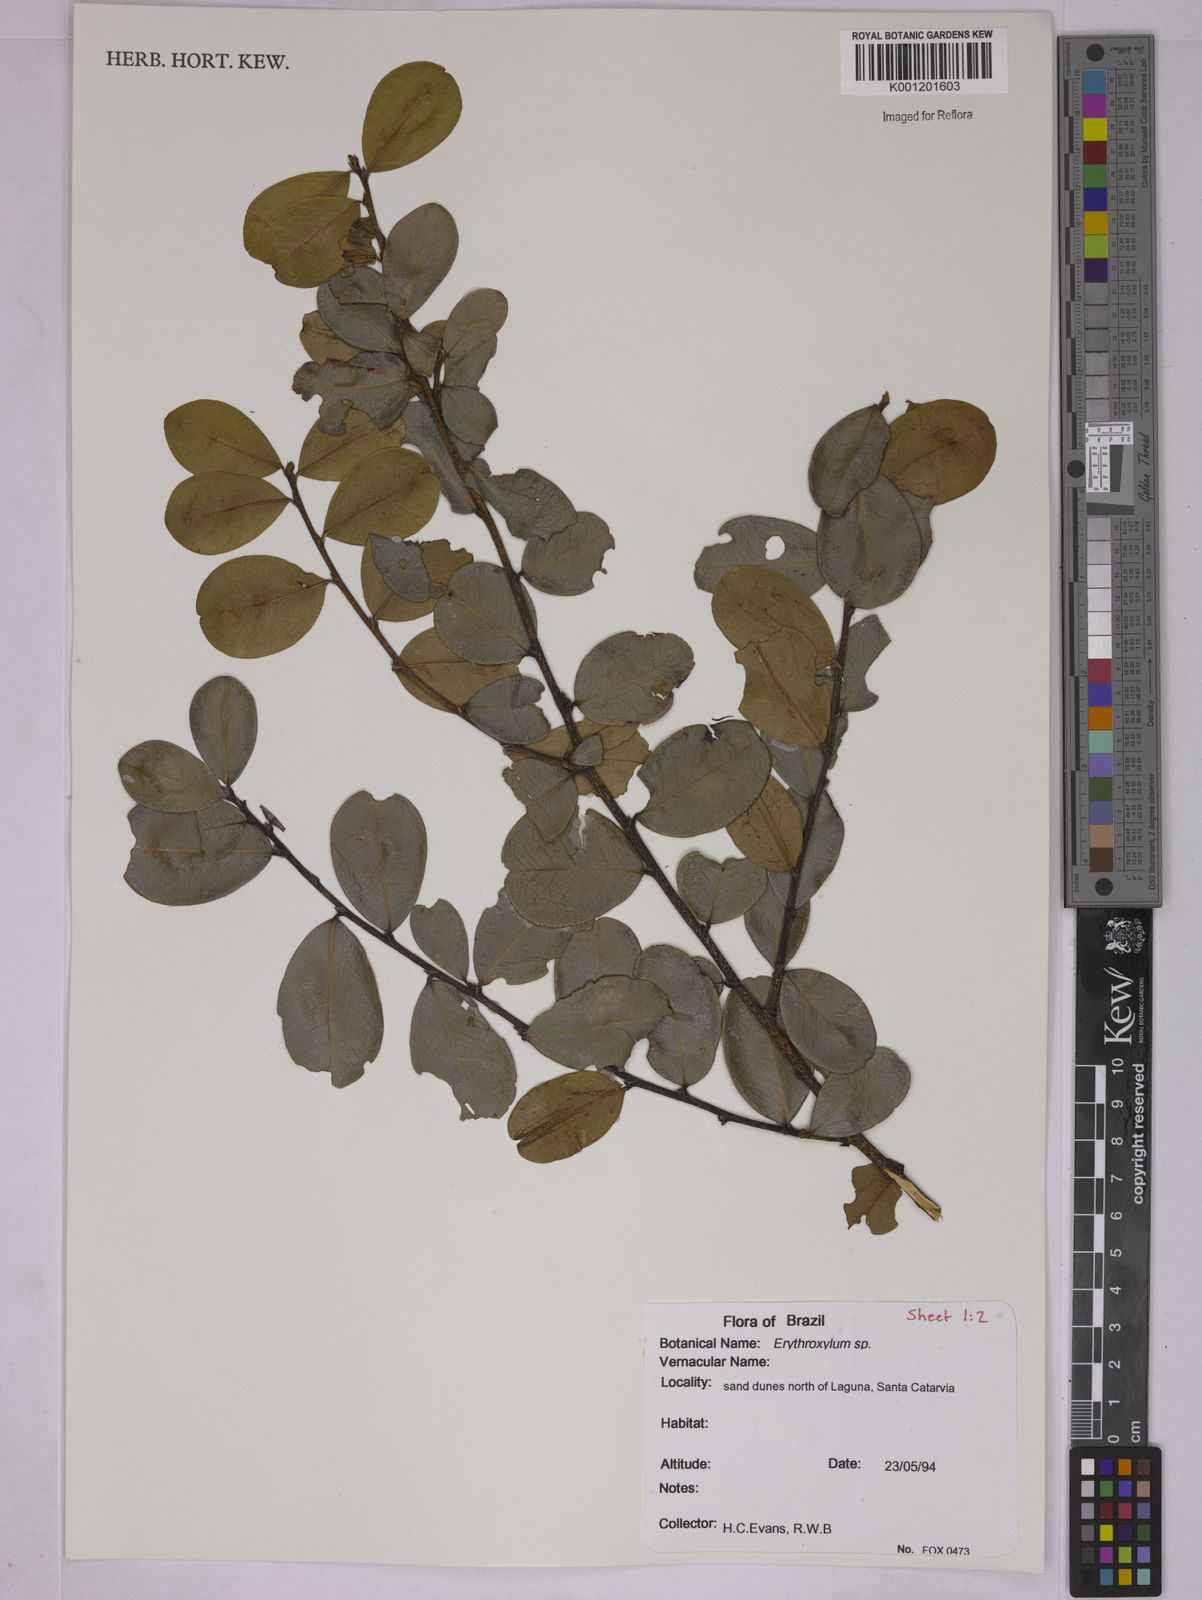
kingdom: Plantae
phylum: Tracheophyta
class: Magnoliopsida
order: Malpighiales
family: Erythroxylaceae
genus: Erythroxylum
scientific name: Erythroxylum
